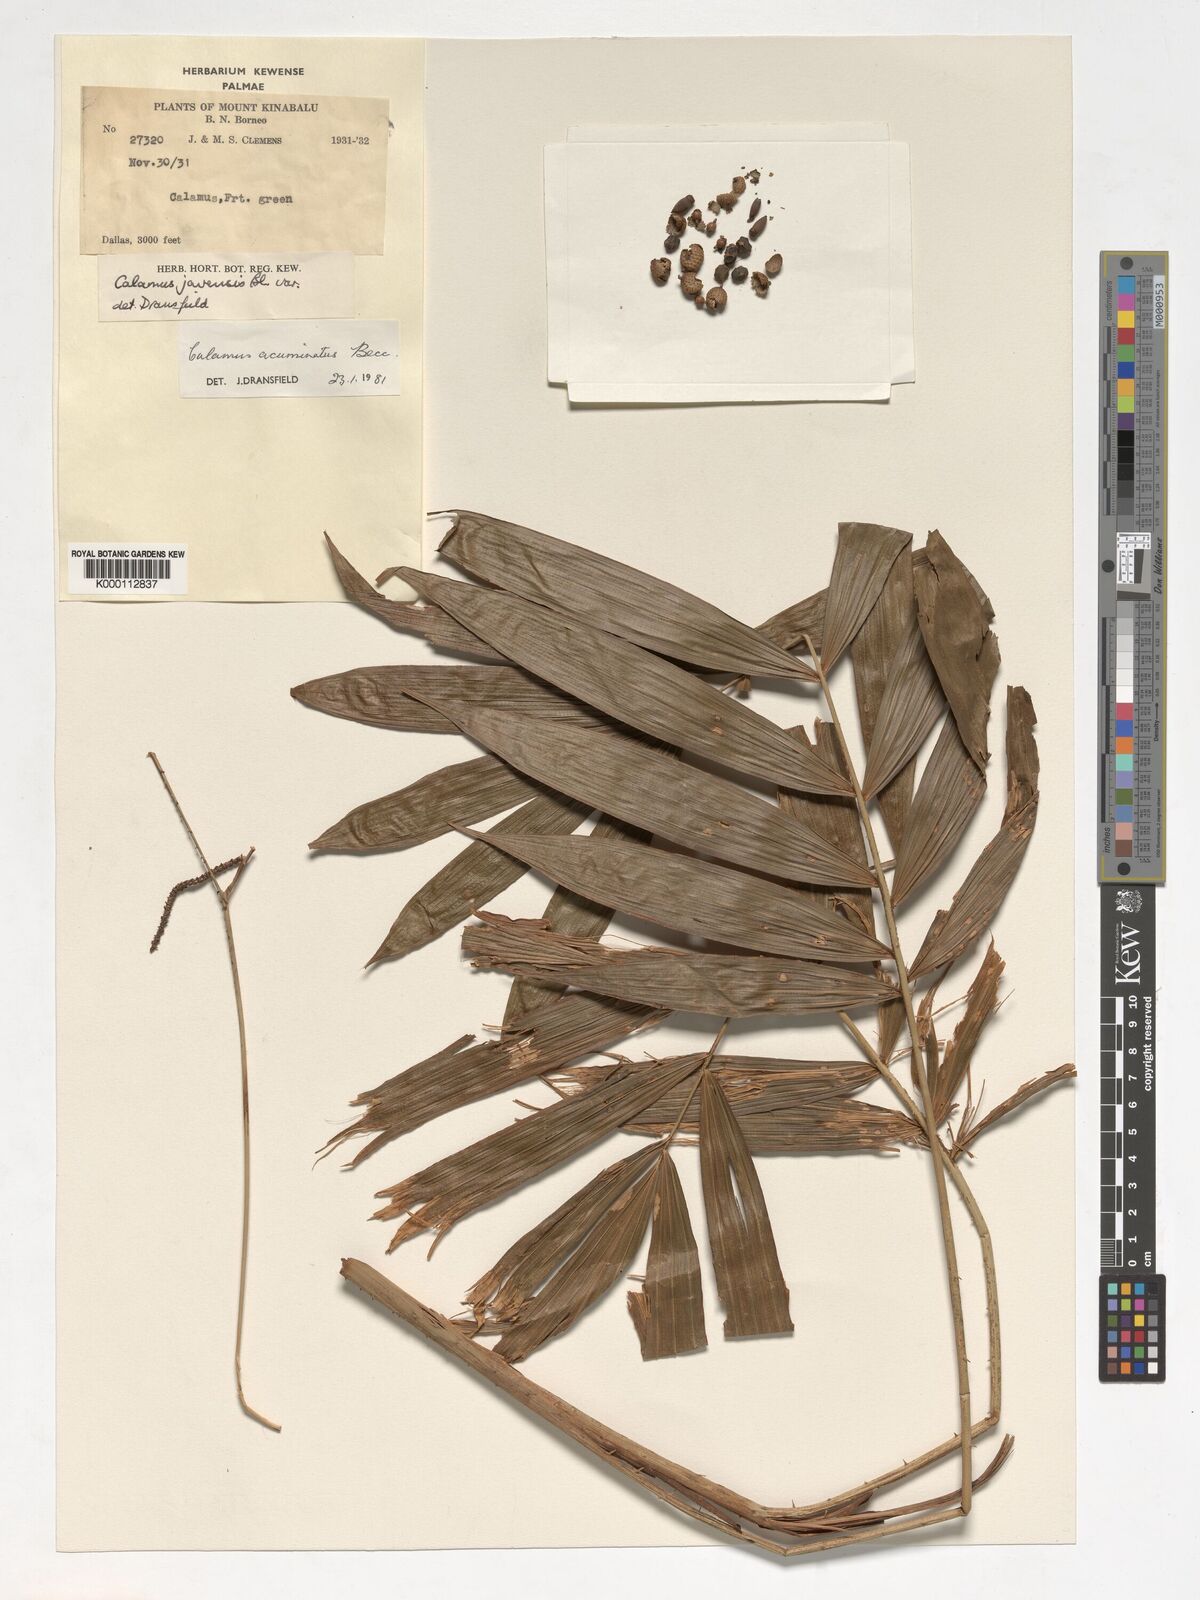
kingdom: Plantae
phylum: Tracheophyta
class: Liliopsida
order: Arecales
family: Arecaceae
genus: Calamus
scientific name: Calamus javensis
